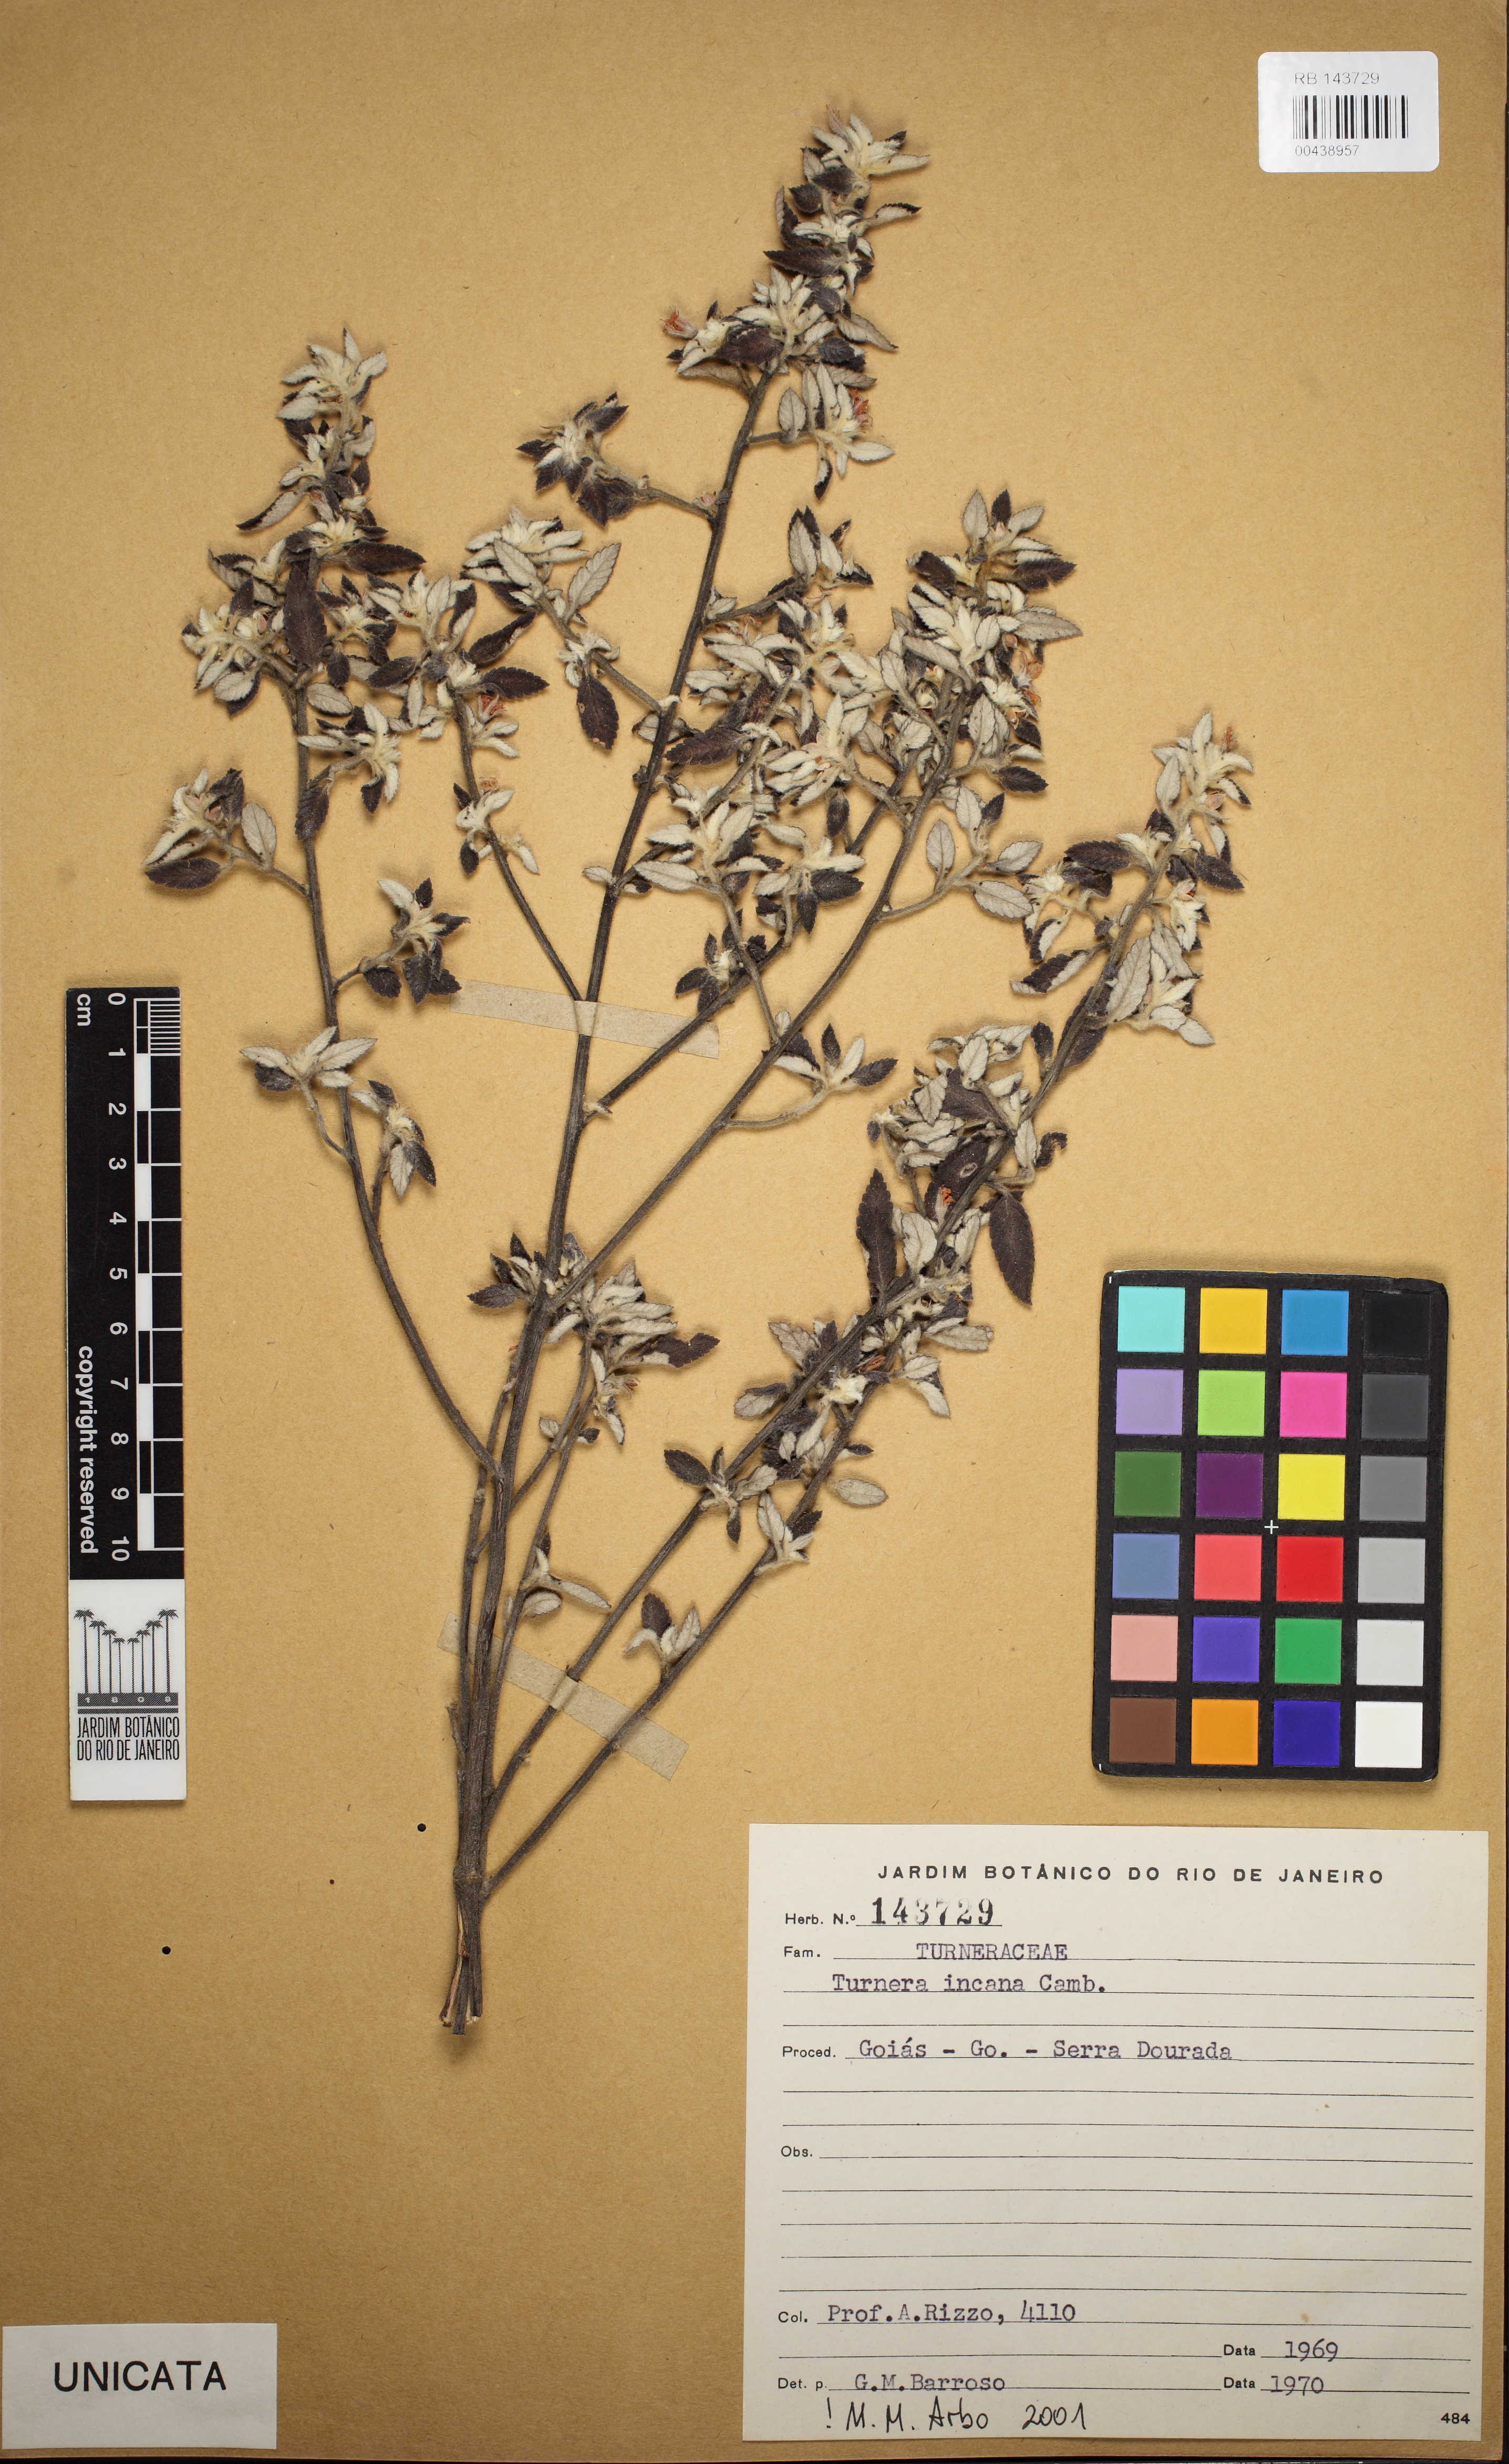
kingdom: Plantae
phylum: Tracheophyta
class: Magnoliopsida
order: Malpighiales
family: Turneraceae
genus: Turnera
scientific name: Turnera incana
